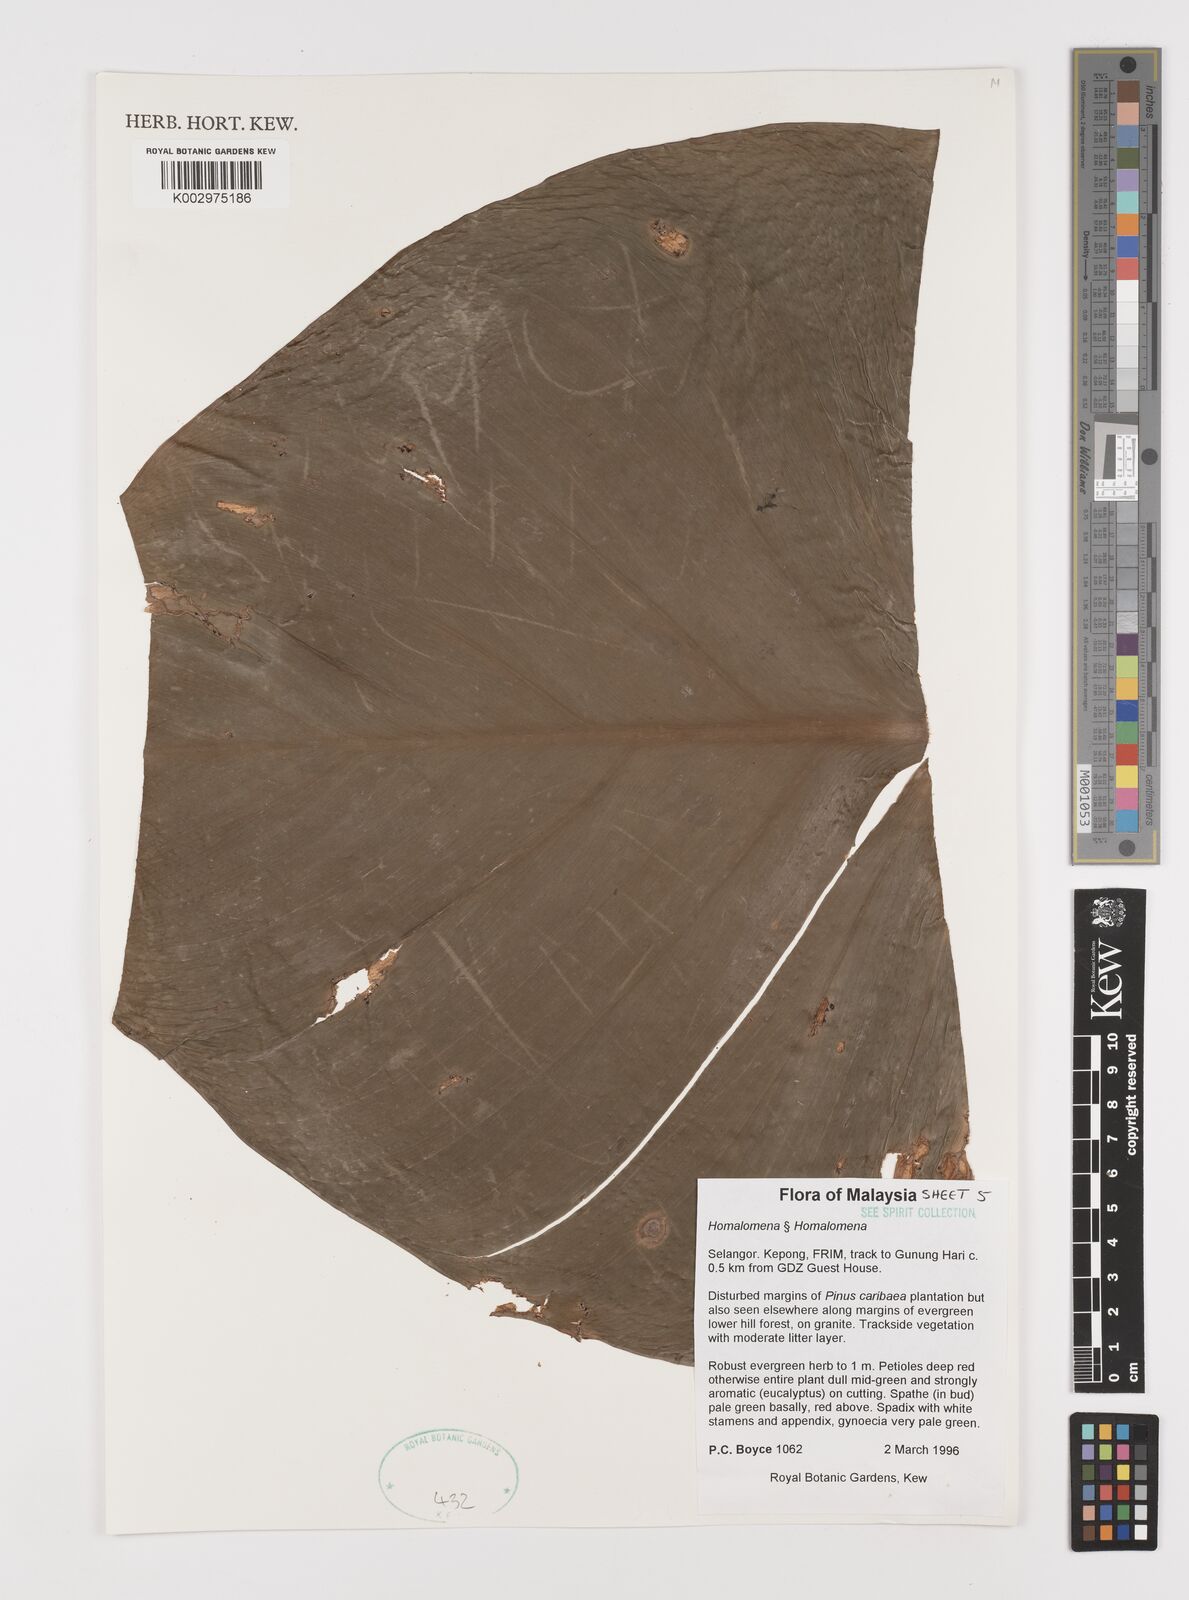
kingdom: Plantae
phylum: Tracheophyta
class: Liliopsida
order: Alismatales
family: Araceae
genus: Homalomena
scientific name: Homalomena
